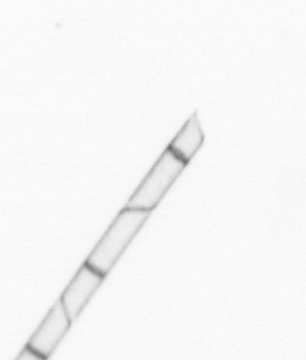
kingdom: Chromista
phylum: Ochrophyta
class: Bacillariophyceae
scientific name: Bacillariophyceae
